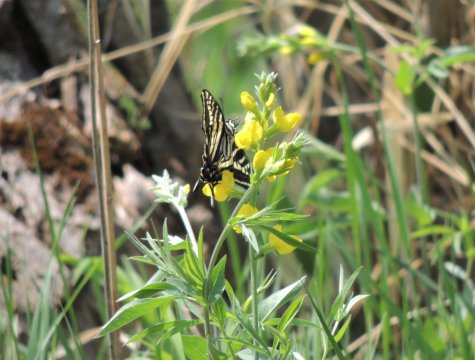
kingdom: Animalia
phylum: Arthropoda
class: Insecta
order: Lepidoptera
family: Papilionidae
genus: Pterourus
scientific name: Pterourus eurymedon
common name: Pale Swallowtail
